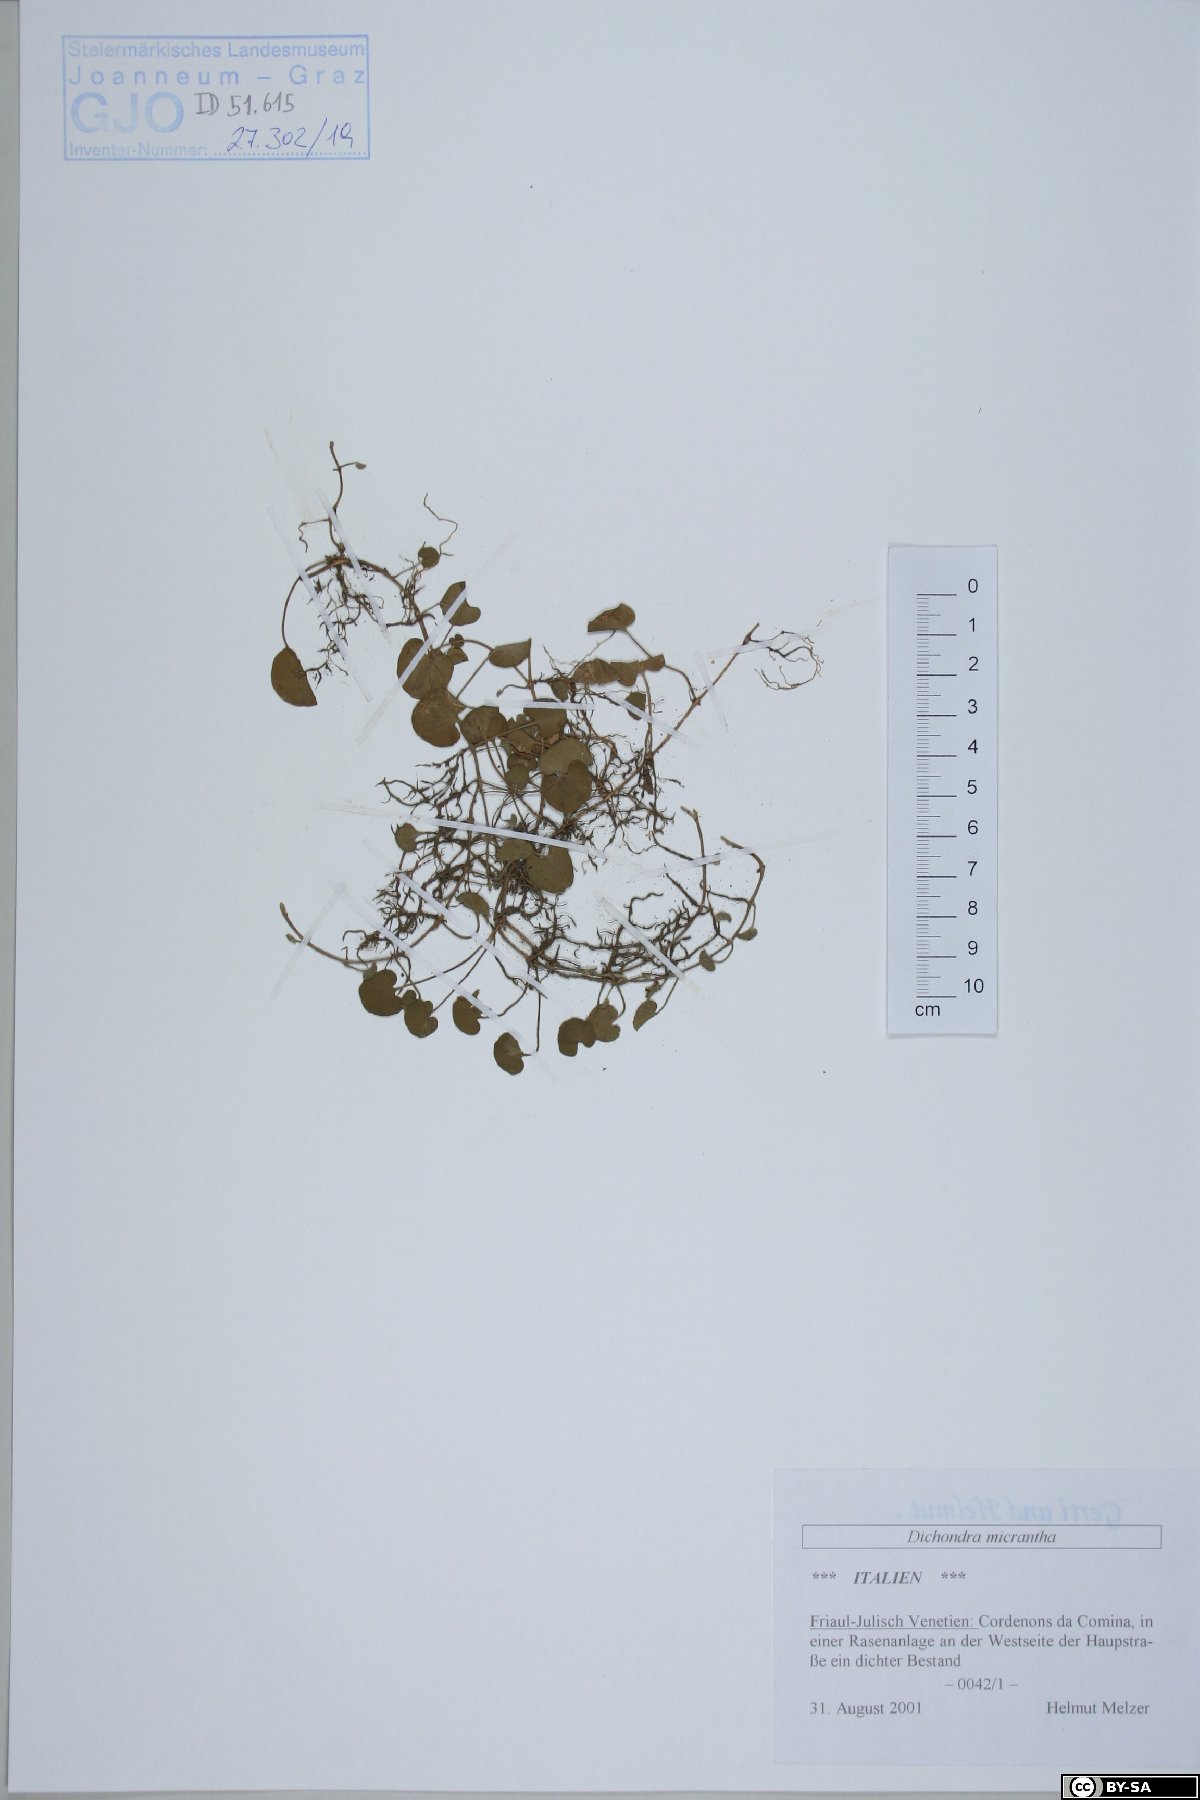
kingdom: Plantae
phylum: Tracheophyta
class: Magnoliopsida
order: Solanales
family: Convolvulaceae
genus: Dichondra
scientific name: Dichondra micrantha
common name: Kidneyweed
